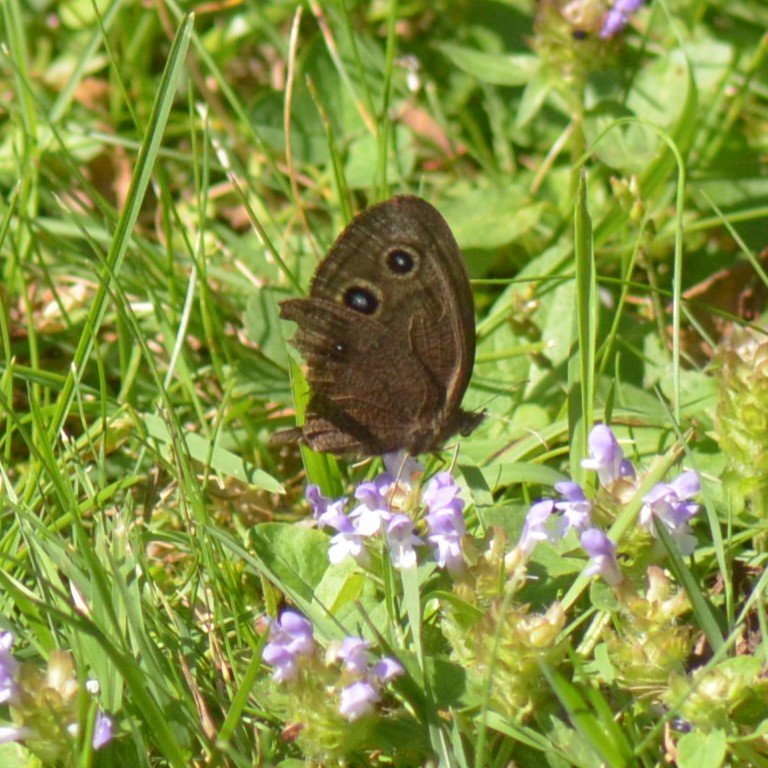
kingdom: Animalia
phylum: Arthropoda
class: Insecta
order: Lepidoptera
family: Nymphalidae
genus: Cercyonis
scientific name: Cercyonis pegala
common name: Common Wood-Nymph
